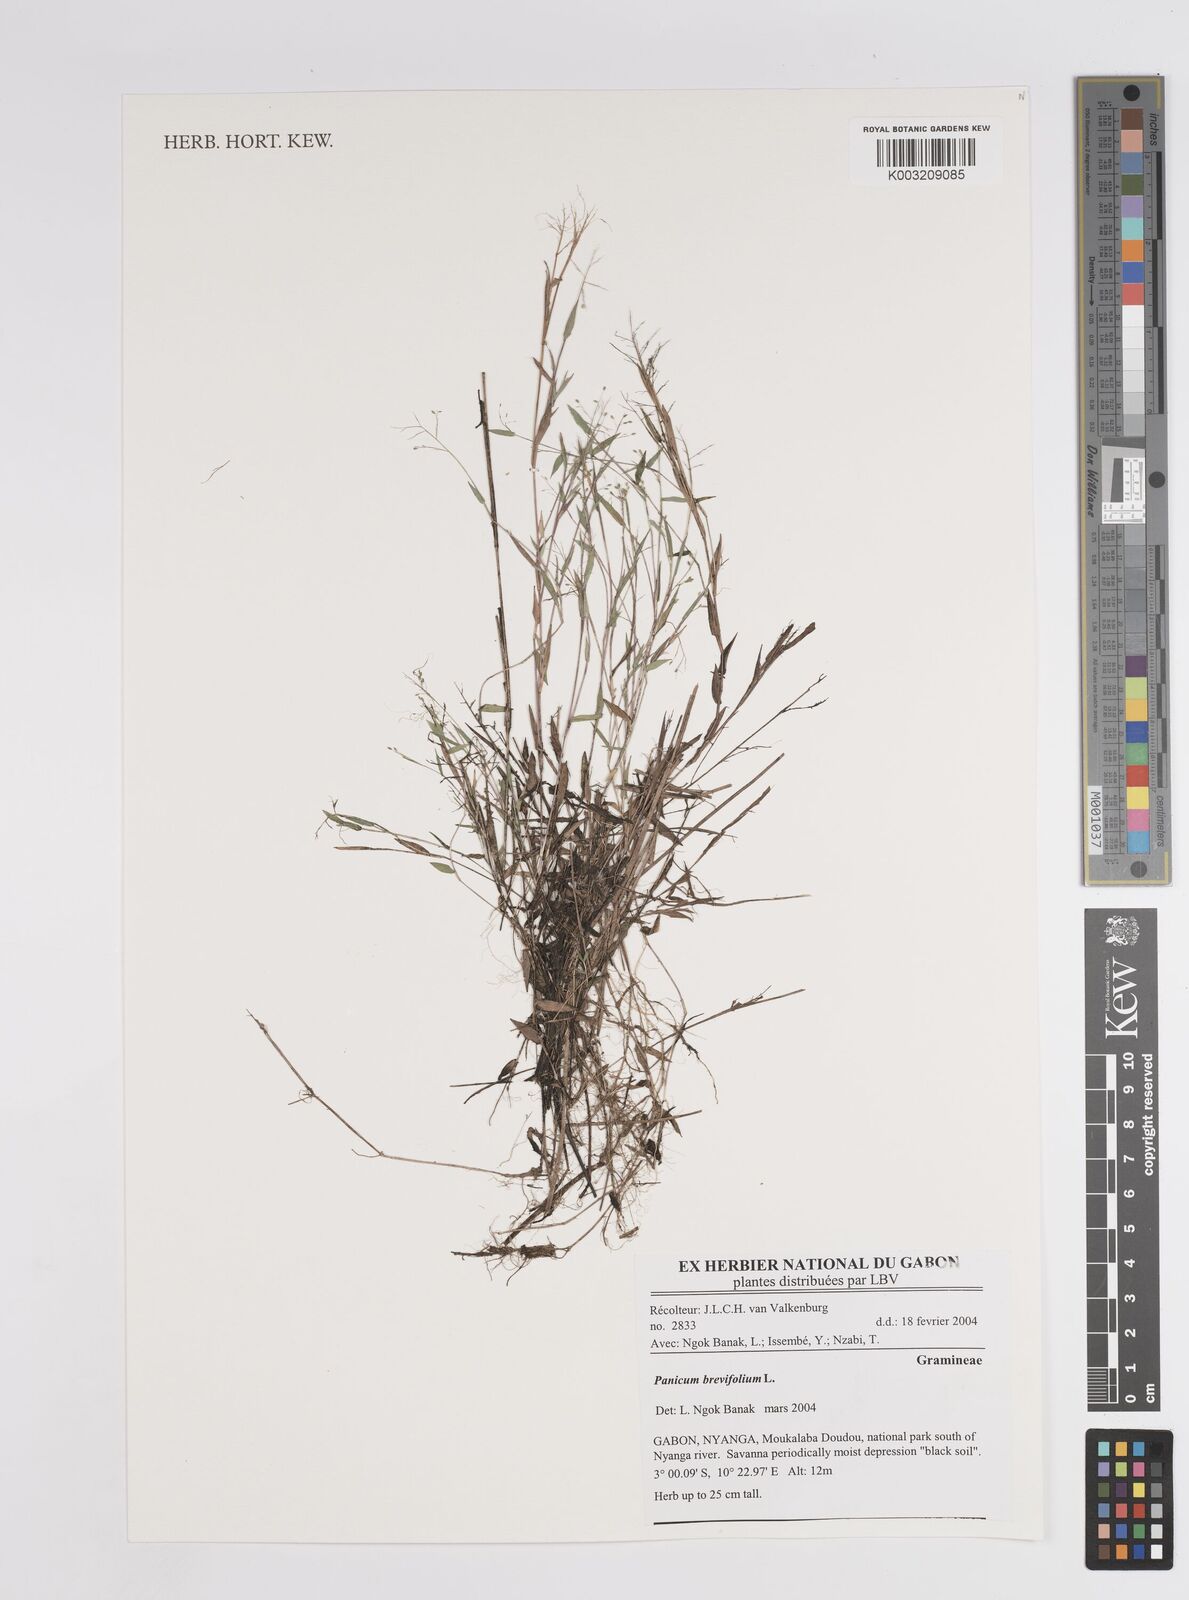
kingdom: Plantae
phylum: Tracheophyta
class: Liliopsida
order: Poales
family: Poaceae
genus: Panicum
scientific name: Panicum brevifolium
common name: Shortleaf panic grass
